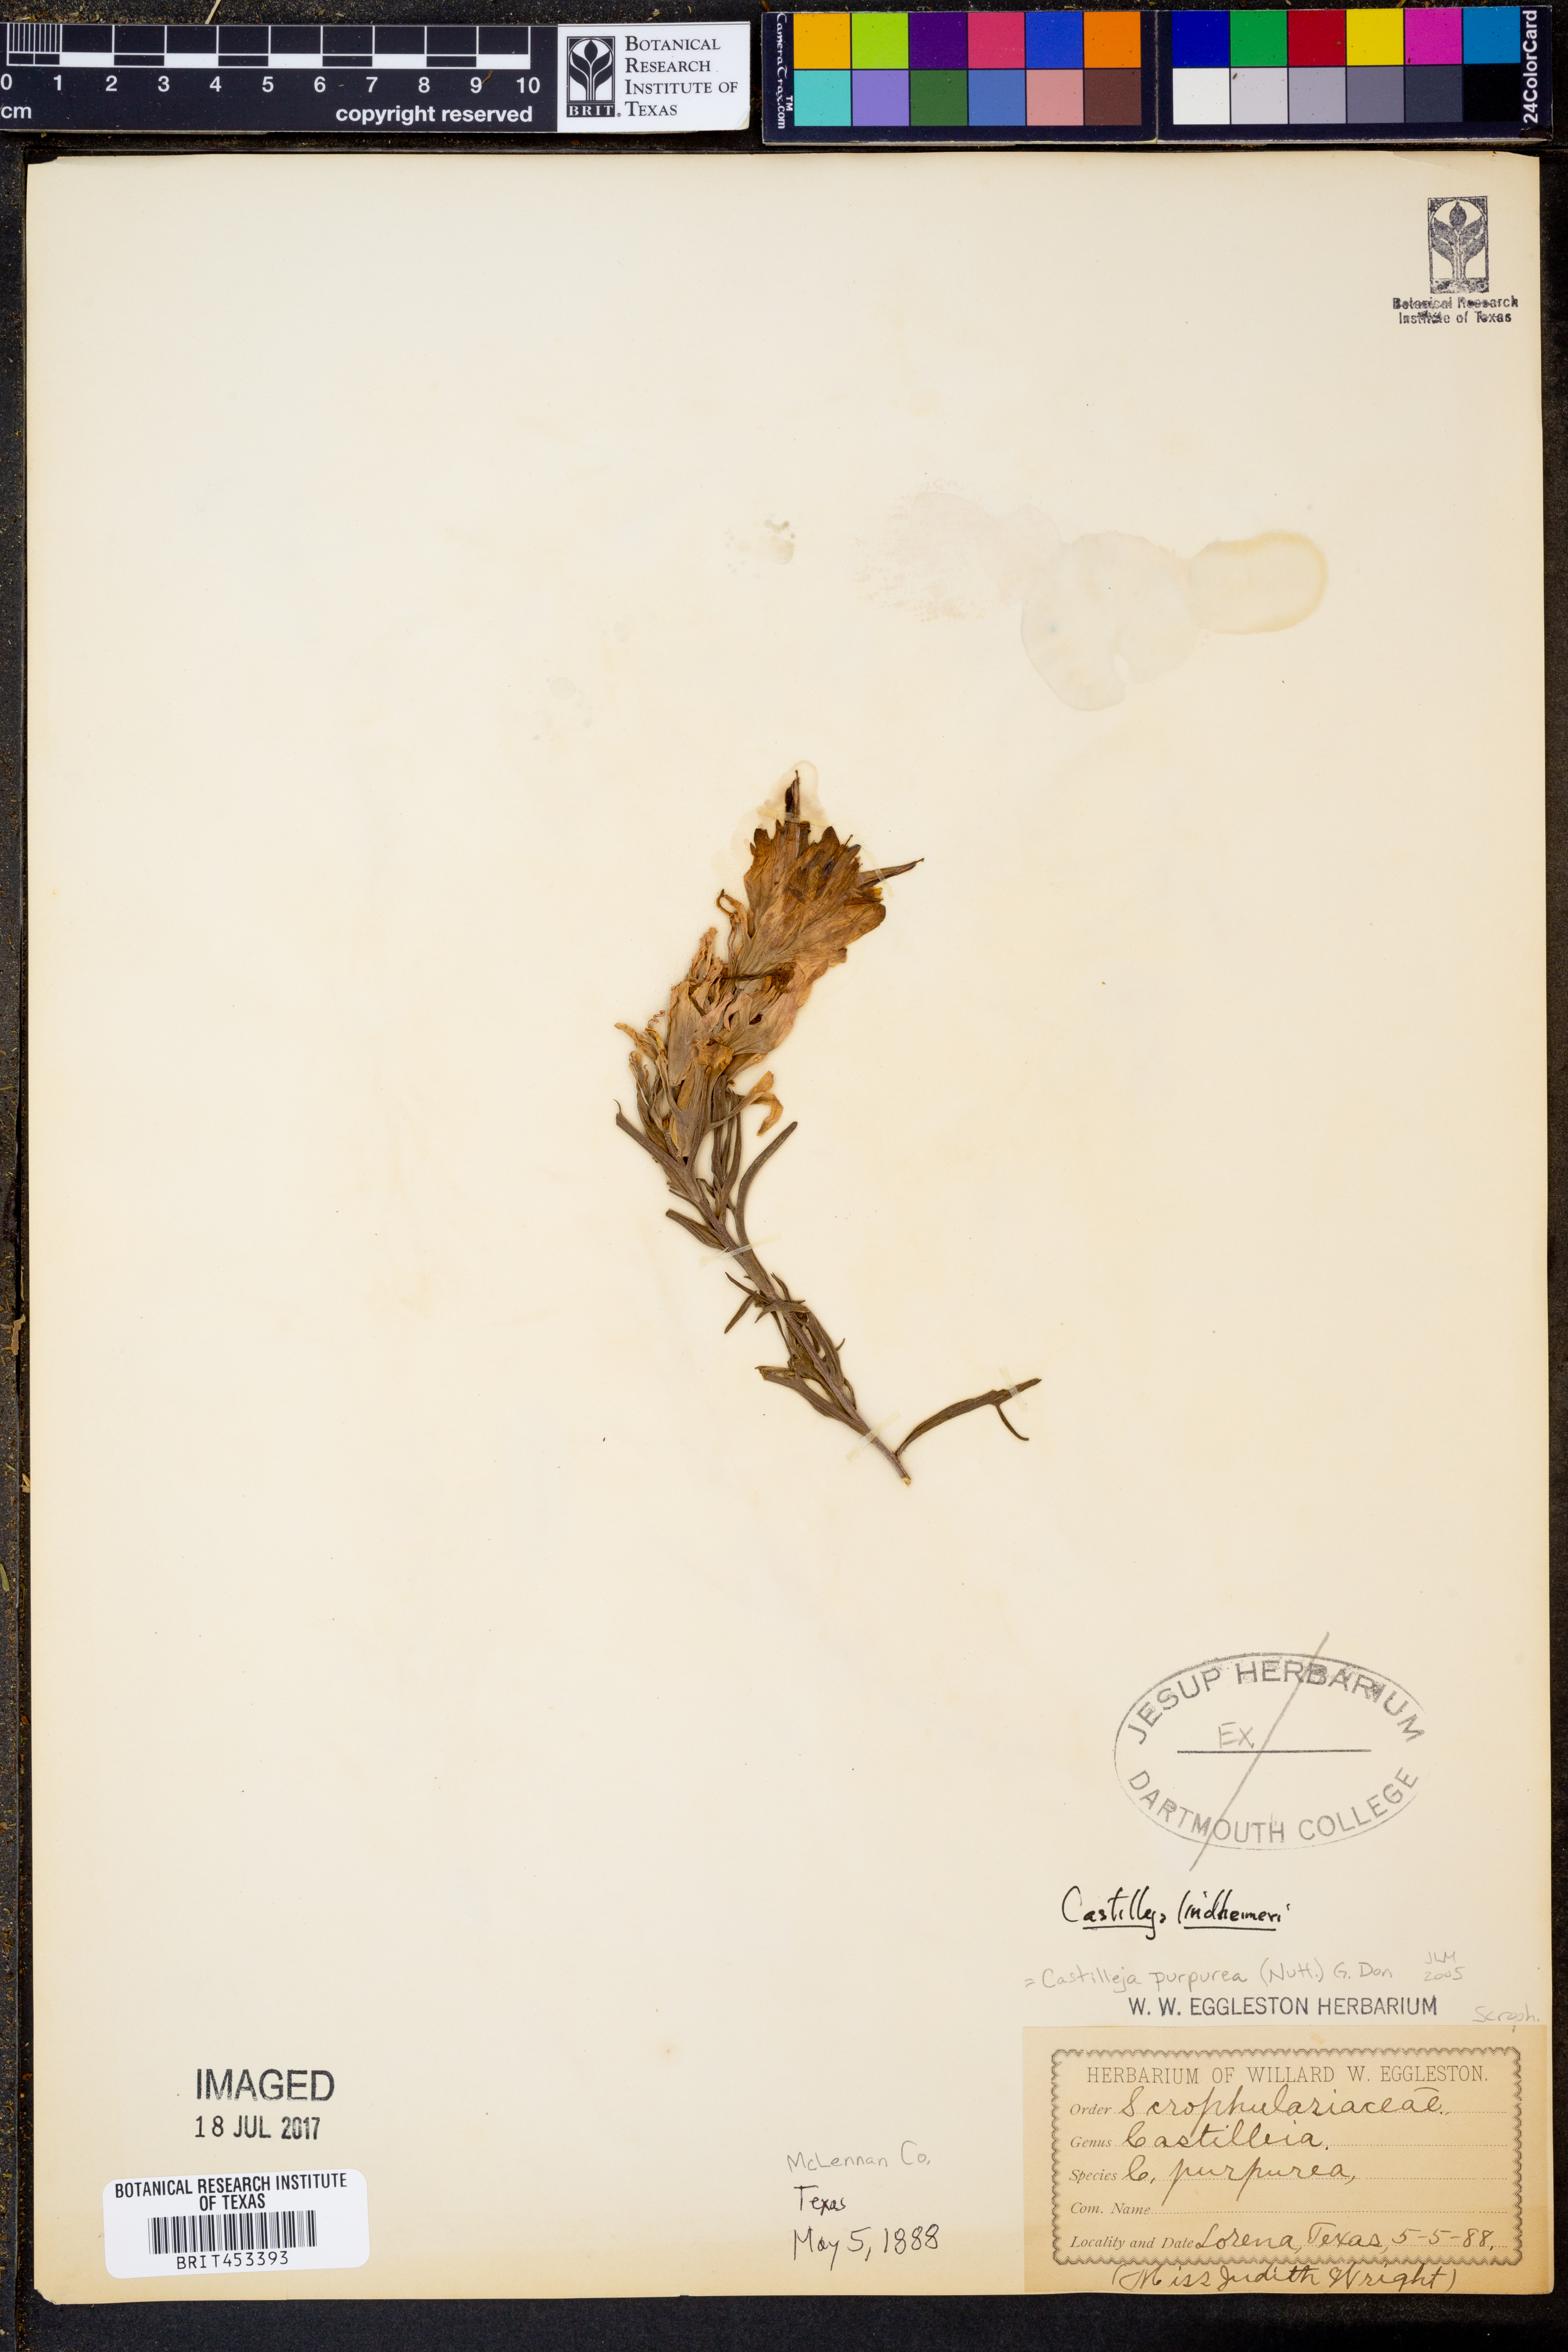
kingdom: Plantae
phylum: Tracheophyta
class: Magnoliopsida
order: Lamiales
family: Orobanchaceae
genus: Castilleja
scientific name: Castilleja lindheimeri
